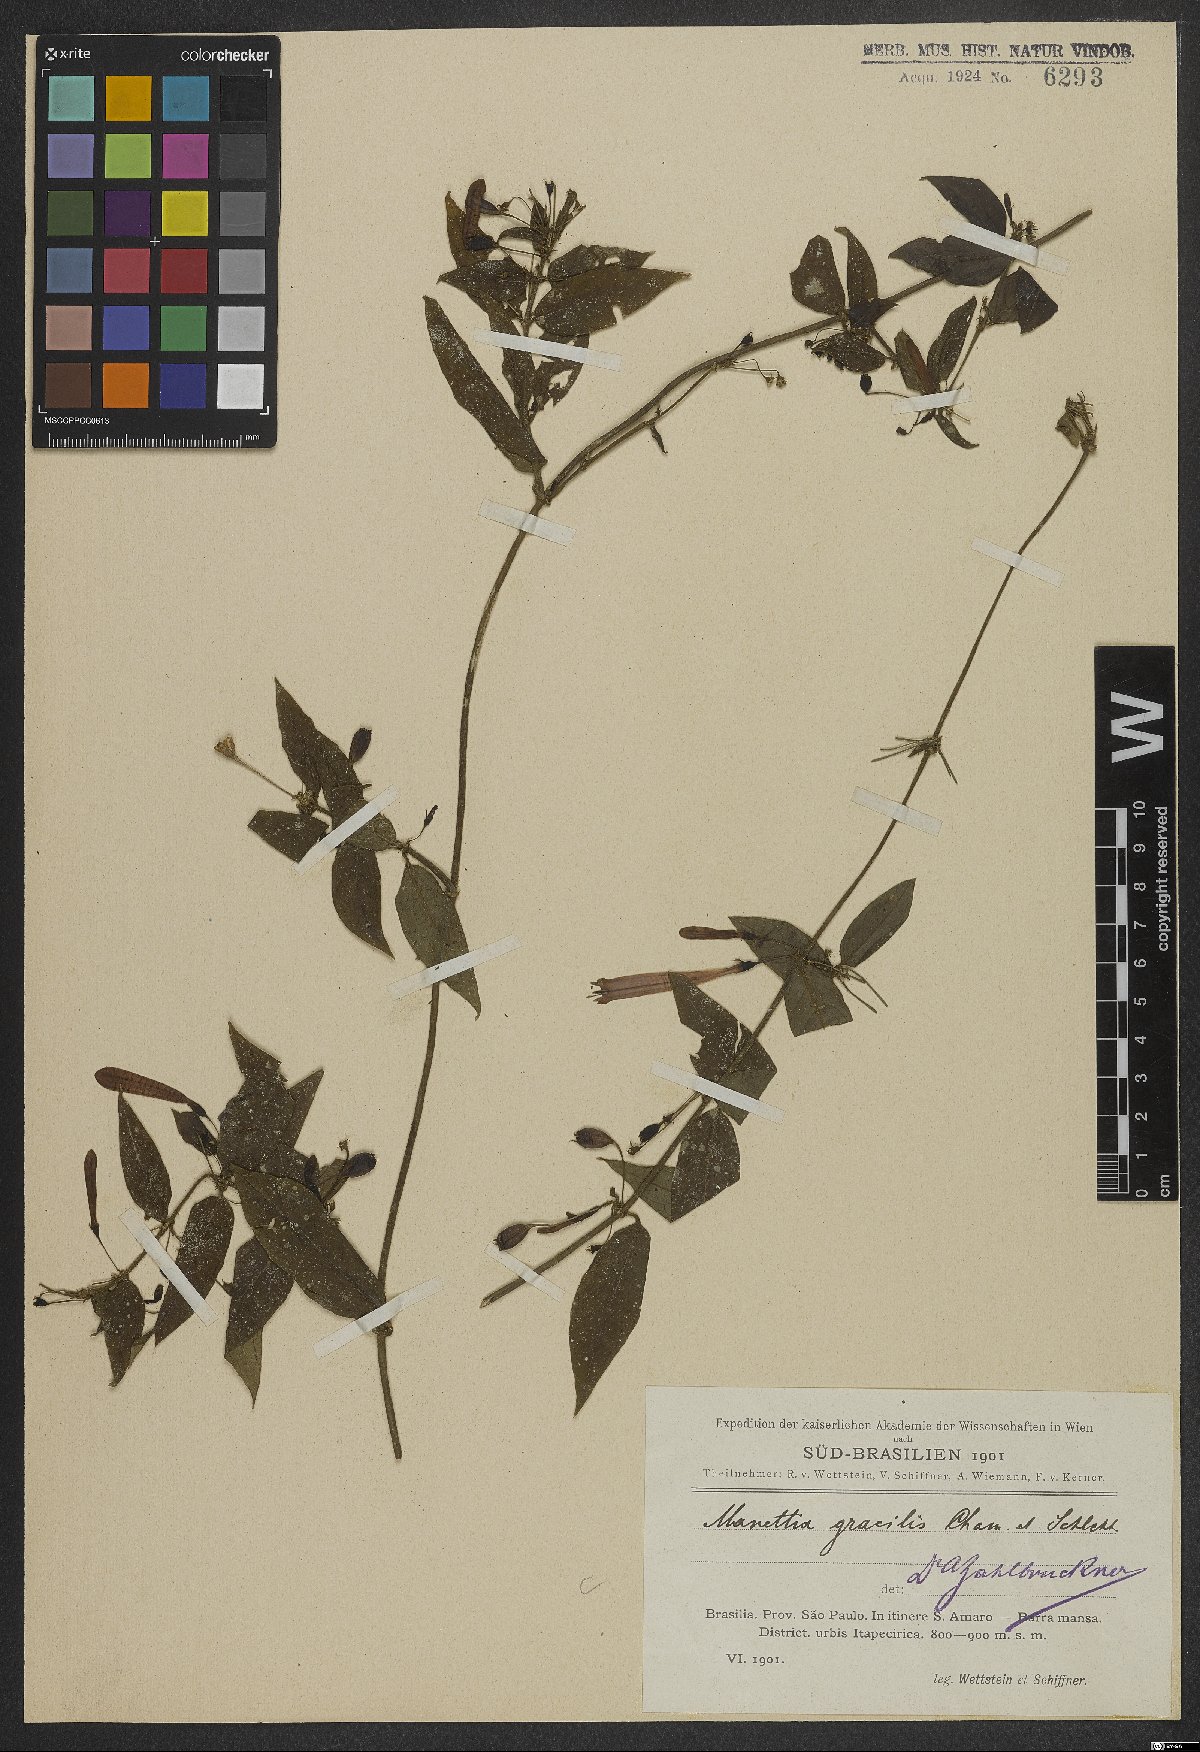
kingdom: Plantae
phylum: Tracheophyta
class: Magnoliopsida
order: Gentianales
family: Rubiaceae
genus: Manettia
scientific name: Manettia gracilis
